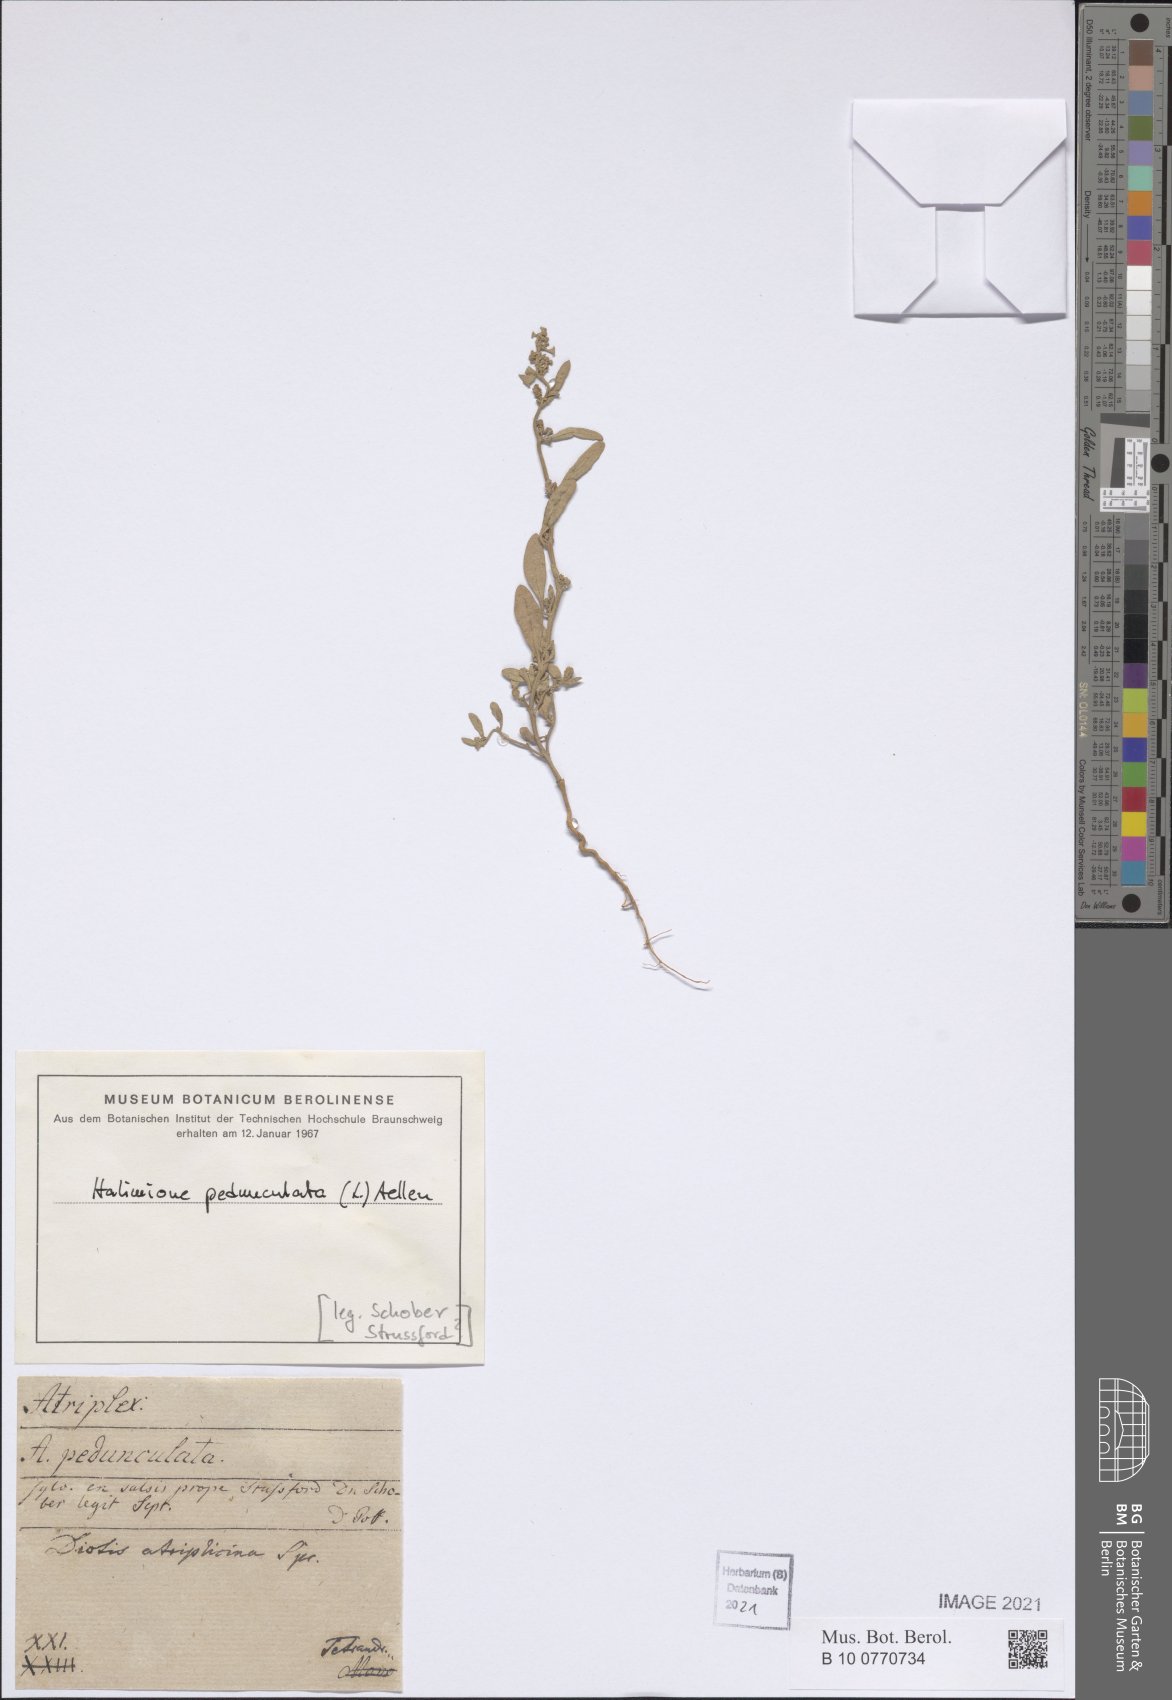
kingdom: Plantae
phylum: Tracheophyta
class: Magnoliopsida
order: Caryophyllales
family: Amaranthaceae
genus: Halimione
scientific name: Halimione pedunculata
